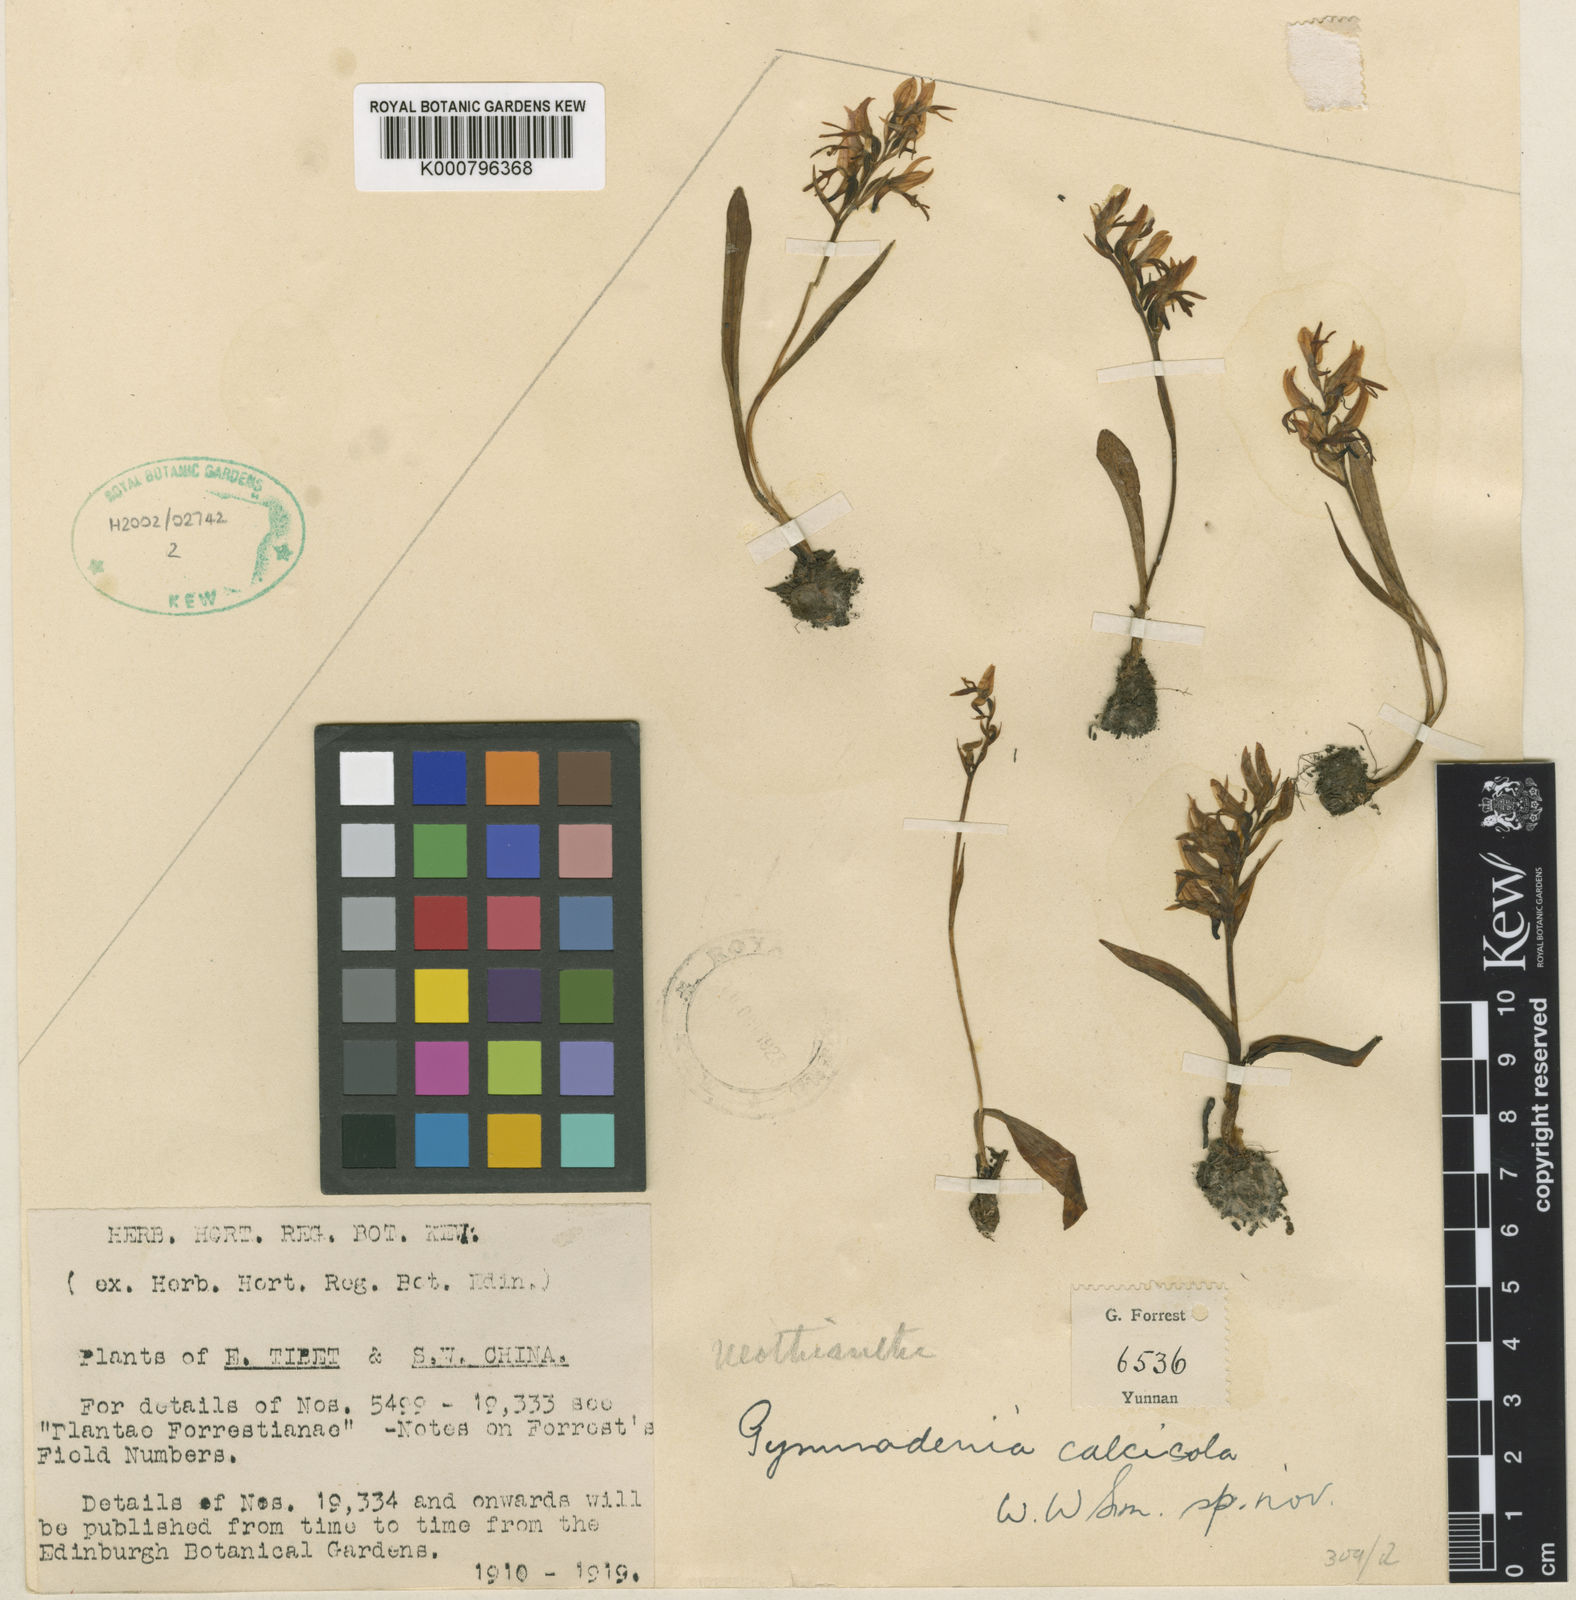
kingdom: Plantae
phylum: Tracheophyta
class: Liliopsida
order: Asparagales
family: Orchidaceae
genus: Hemipilia
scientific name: Hemipilia cucullata
